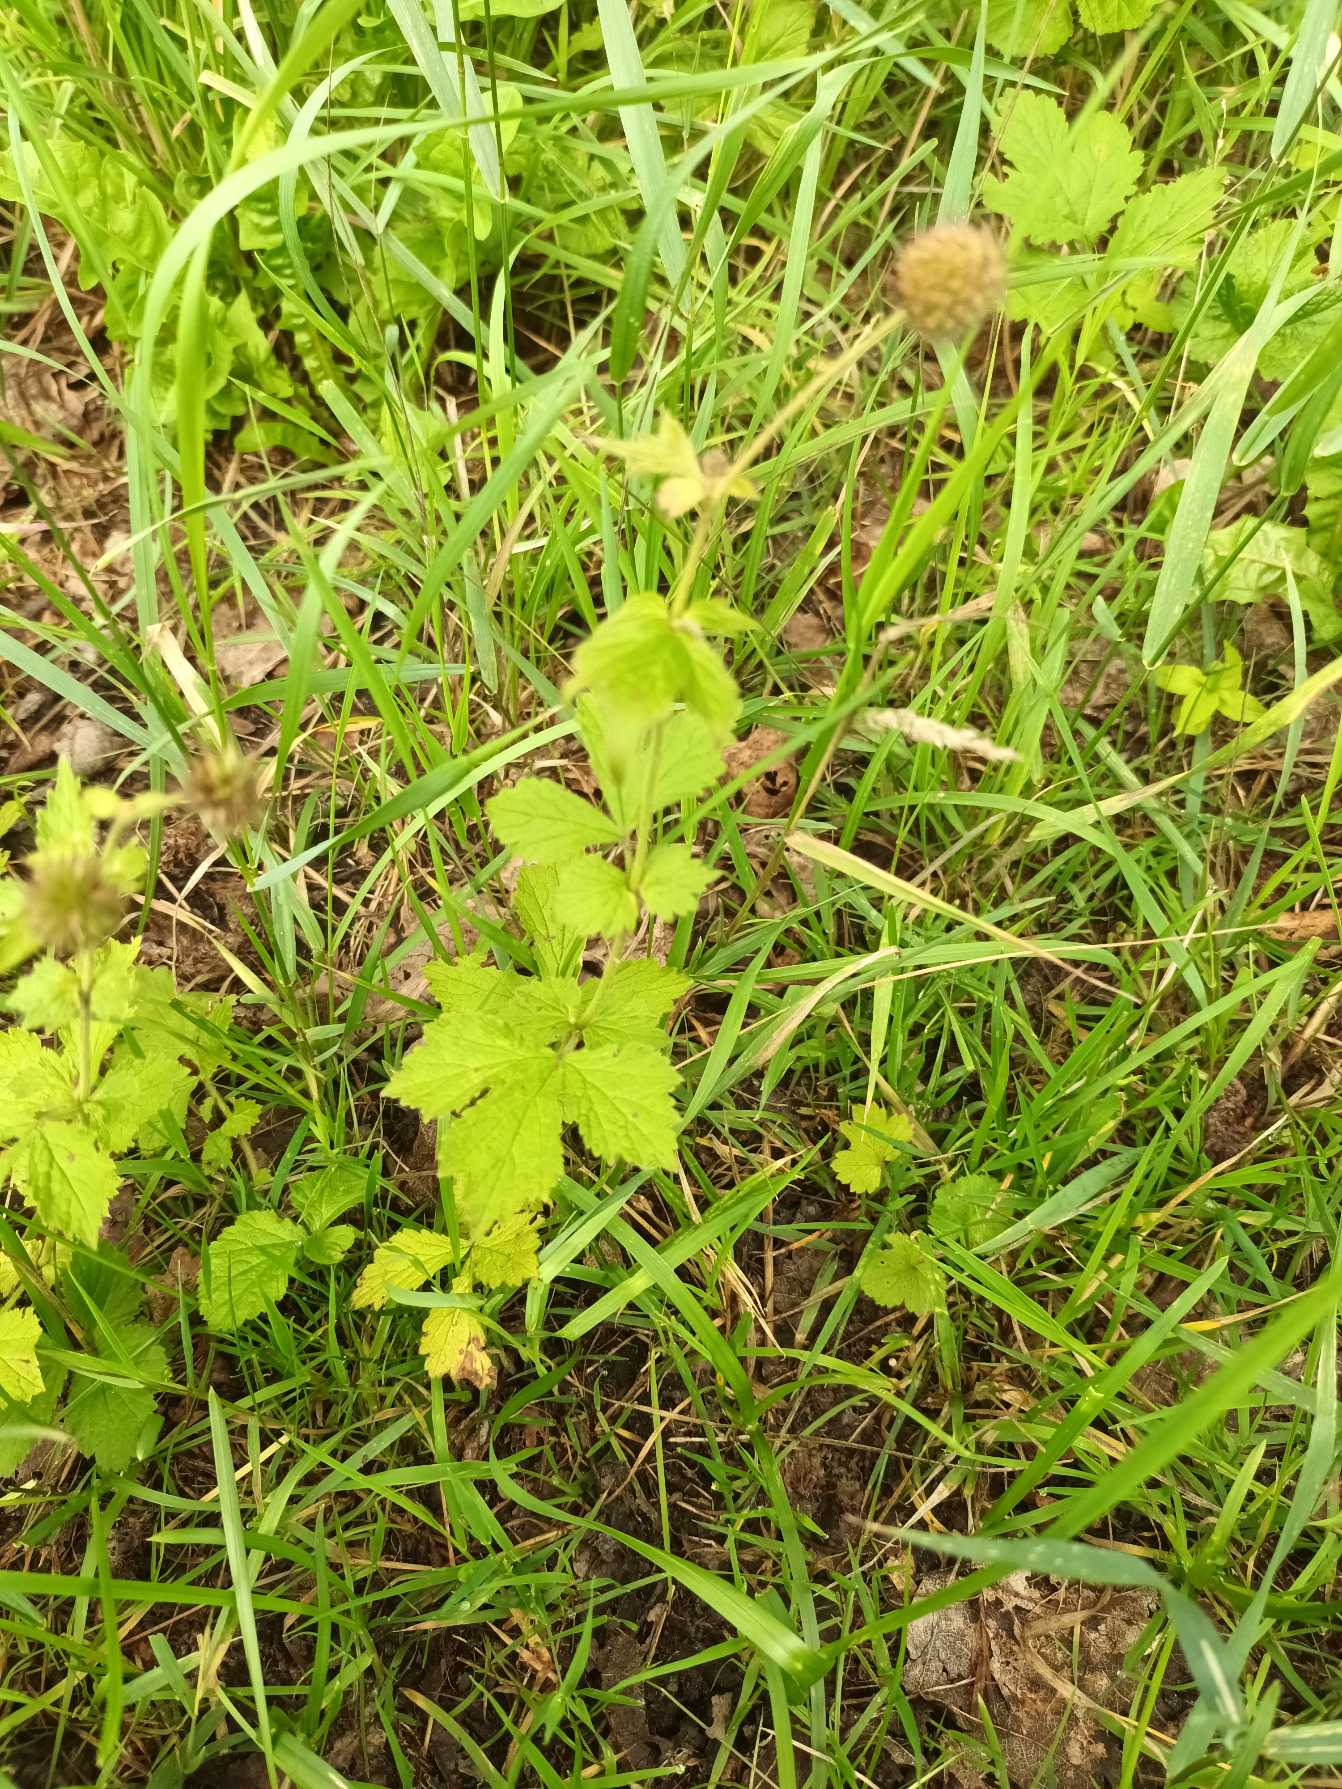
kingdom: Plantae
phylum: Tracheophyta
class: Magnoliopsida
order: Rosales
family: Rosaceae
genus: Geum
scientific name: Geum urbanum
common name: Feber-nellikerod
